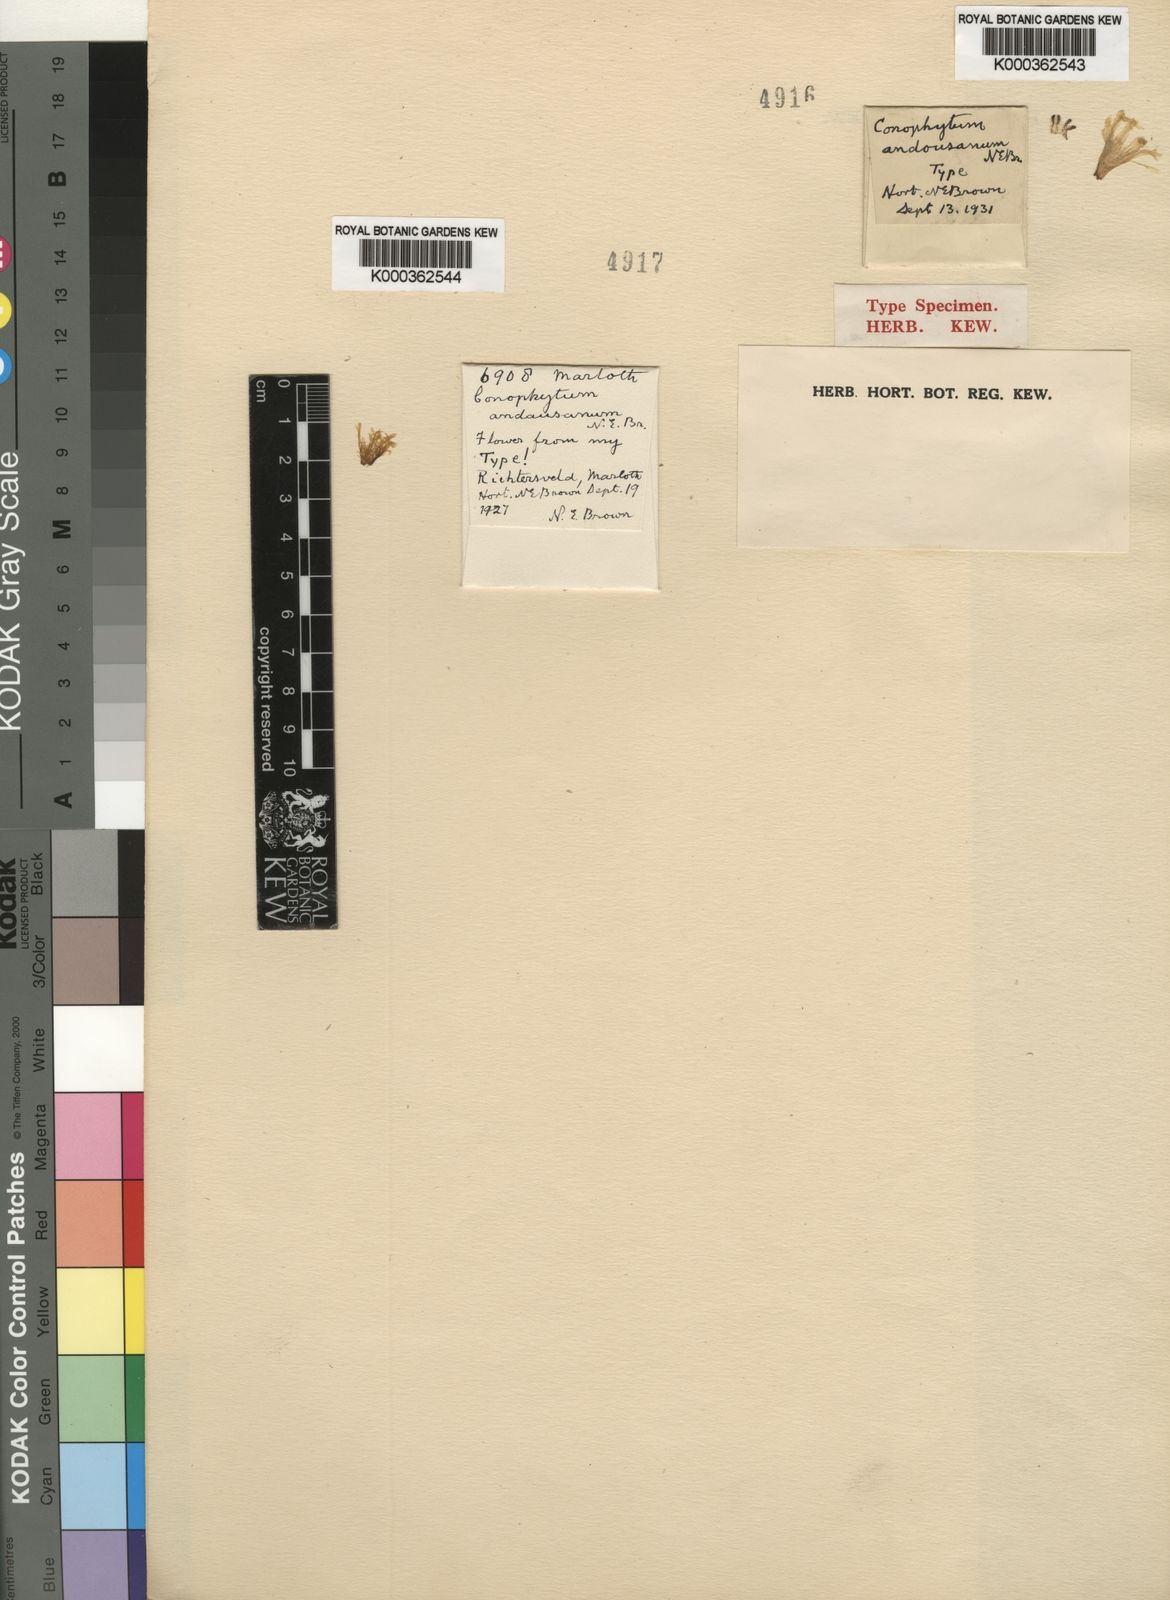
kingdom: Plantae
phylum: Tracheophyta
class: Magnoliopsida
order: Caryophyllales
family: Aizoaceae
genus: Conophytum
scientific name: Conophytum bilobum
